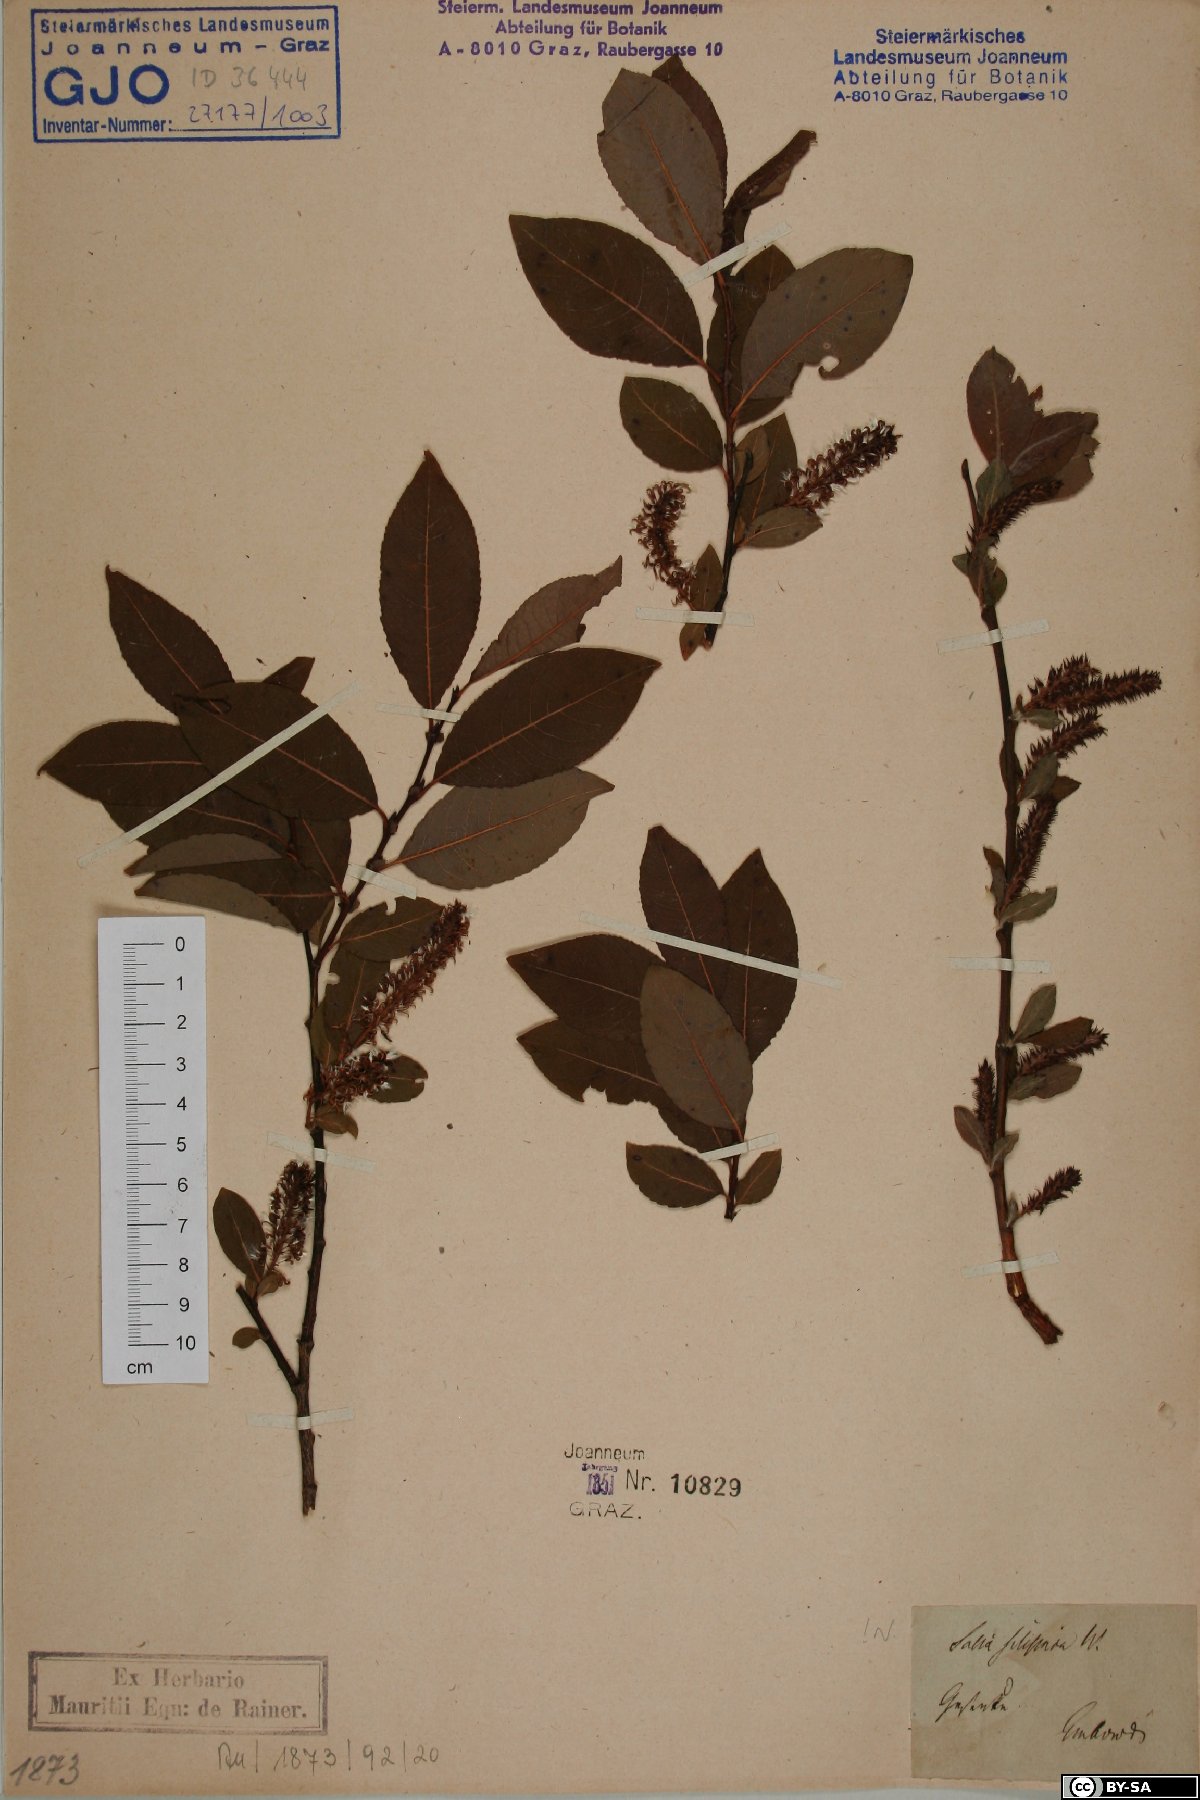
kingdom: Plantae
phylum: Tracheophyta
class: Magnoliopsida
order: Malpighiales
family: Salicaceae
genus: Salix
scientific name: Salix silesiaca
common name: Silesian willow
